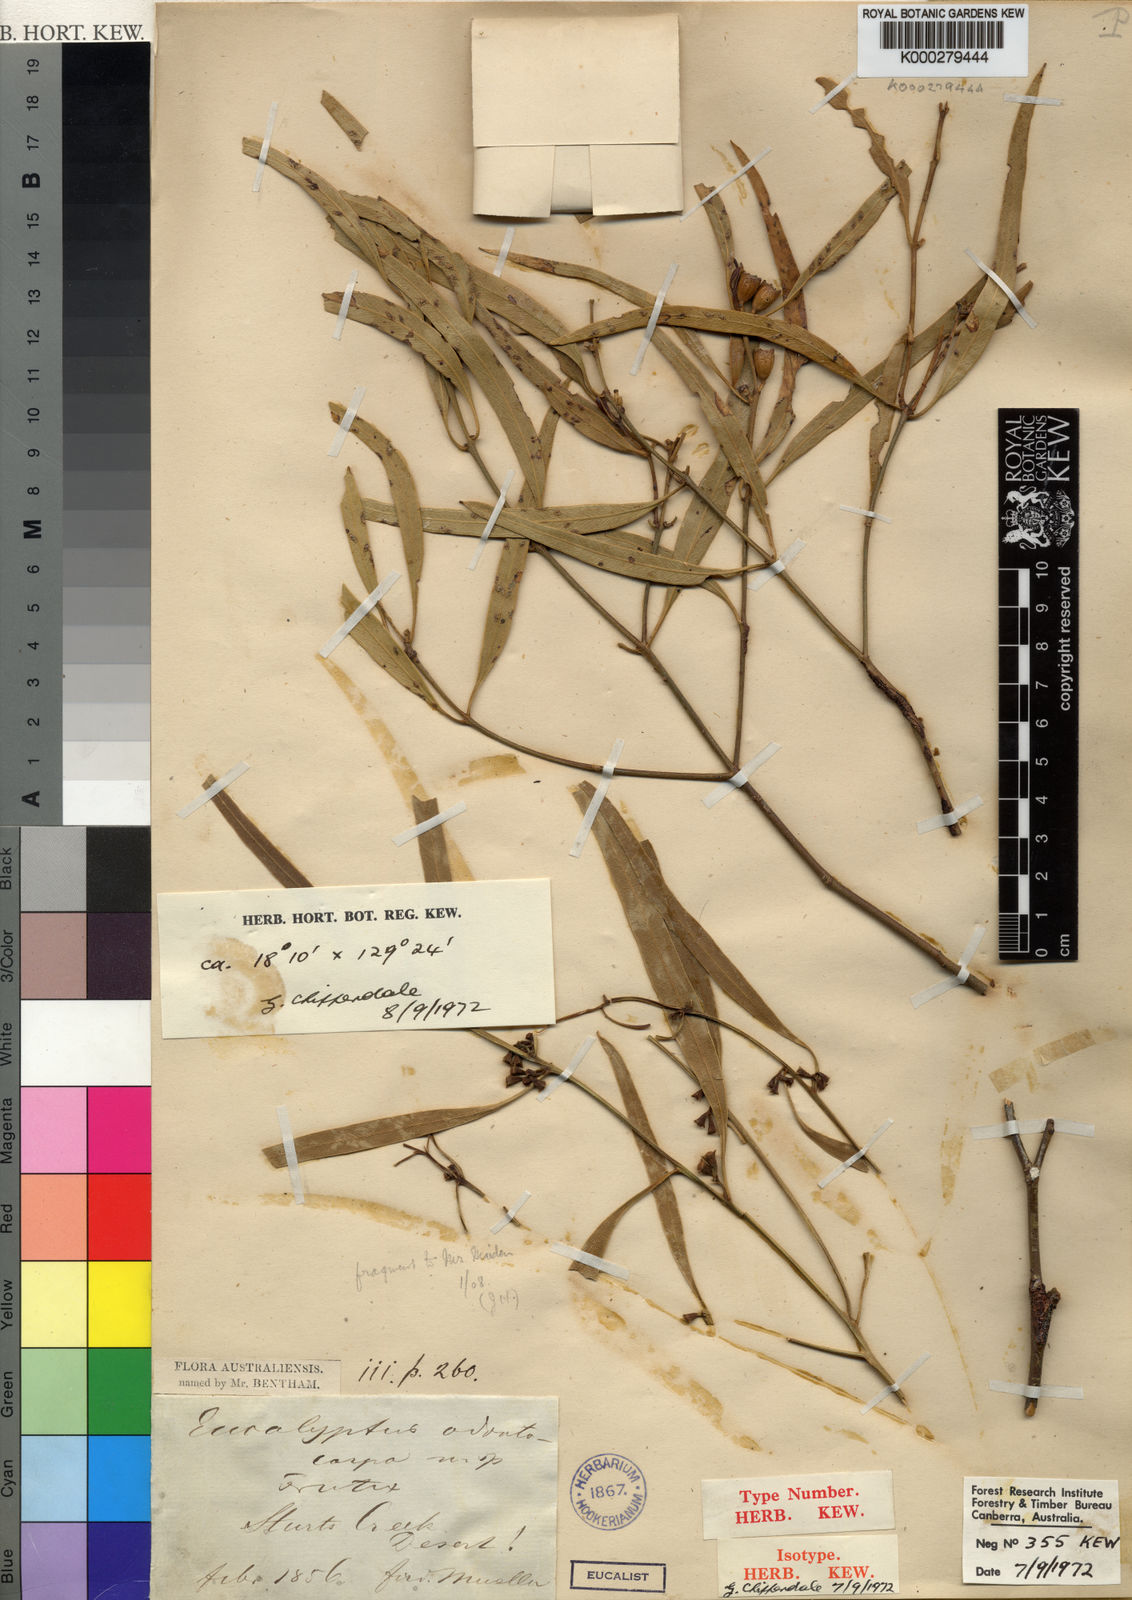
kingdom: Plantae
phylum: Tracheophyta
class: Magnoliopsida
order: Myrtales
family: Myrtaceae
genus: Eucalyptus
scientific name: Eucalyptus odontocarpa
